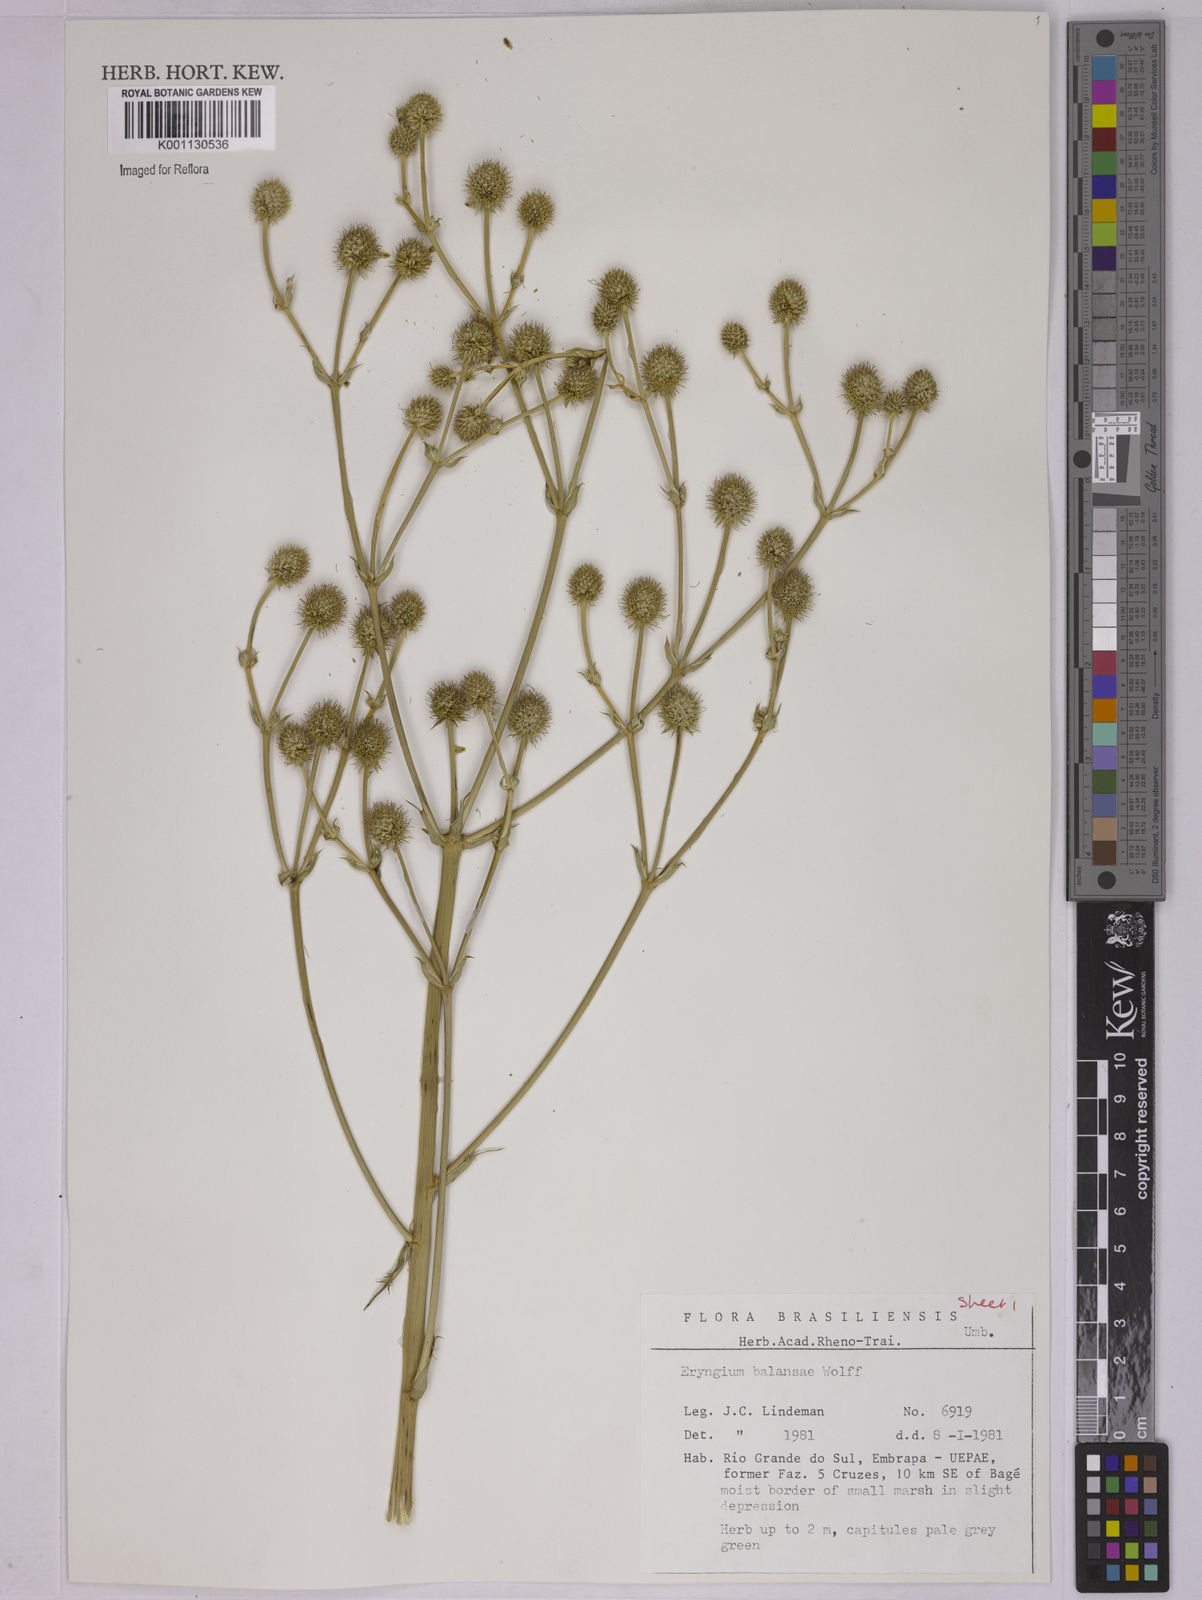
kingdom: Plantae
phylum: Tracheophyta
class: Magnoliopsida
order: Apiales
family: Apiaceae
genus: Eryngium
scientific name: Eryngium balansae
